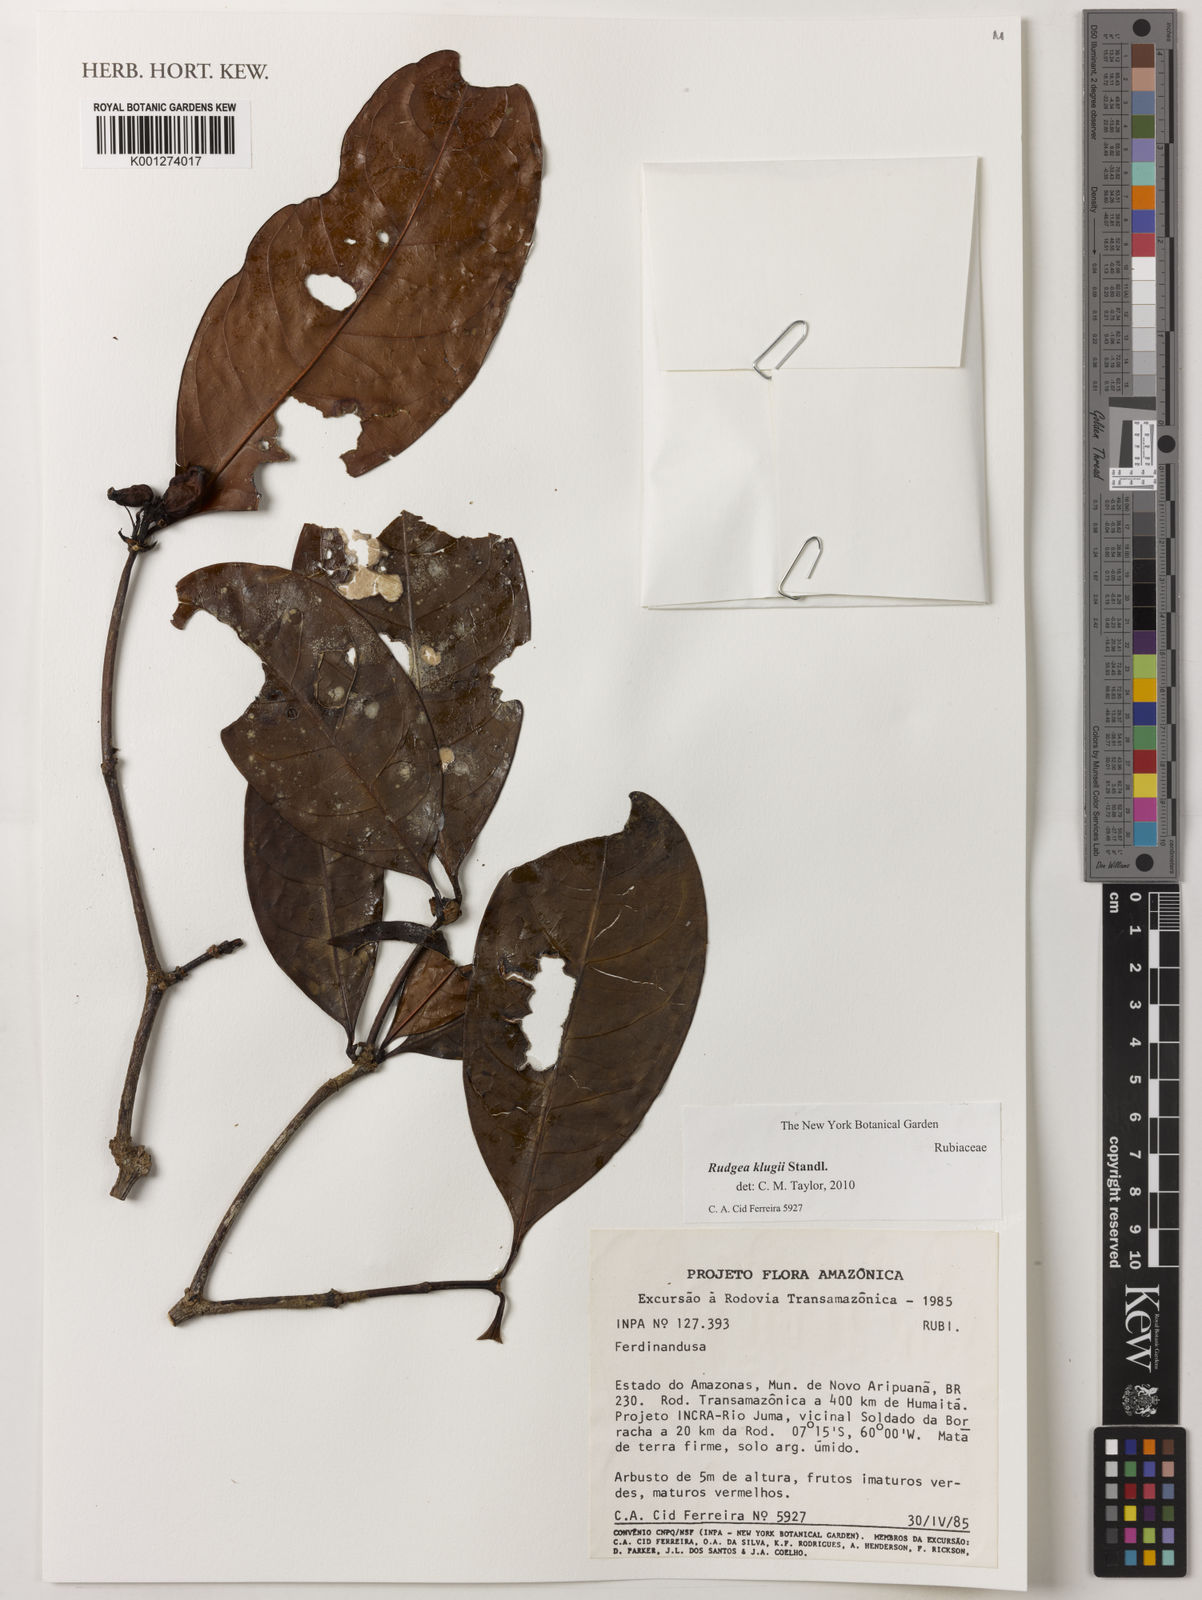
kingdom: Plantae
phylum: Tracheophyta
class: Magnoliopsida
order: Gentianales
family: Rubiaceae
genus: Rudgea
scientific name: Rudgea graciliflora
